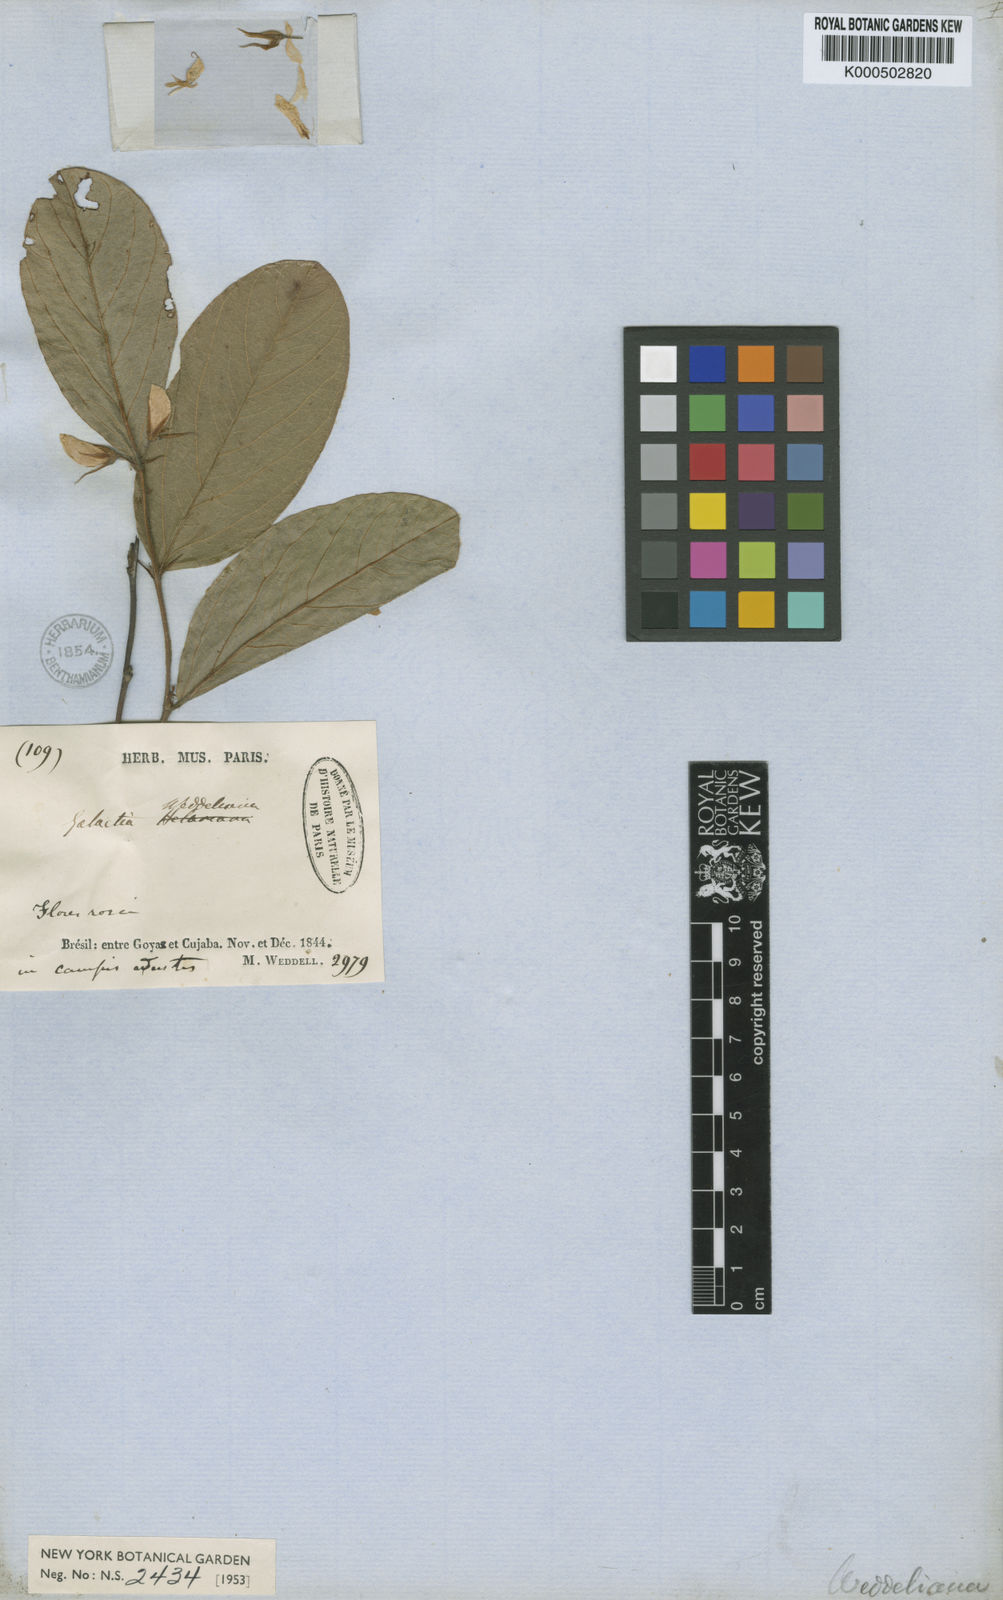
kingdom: Plantae
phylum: Tracheophyta
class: Magnoliopsida
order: Fabales
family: Fabaceae
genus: Galactia
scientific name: Galactia weddelliana
